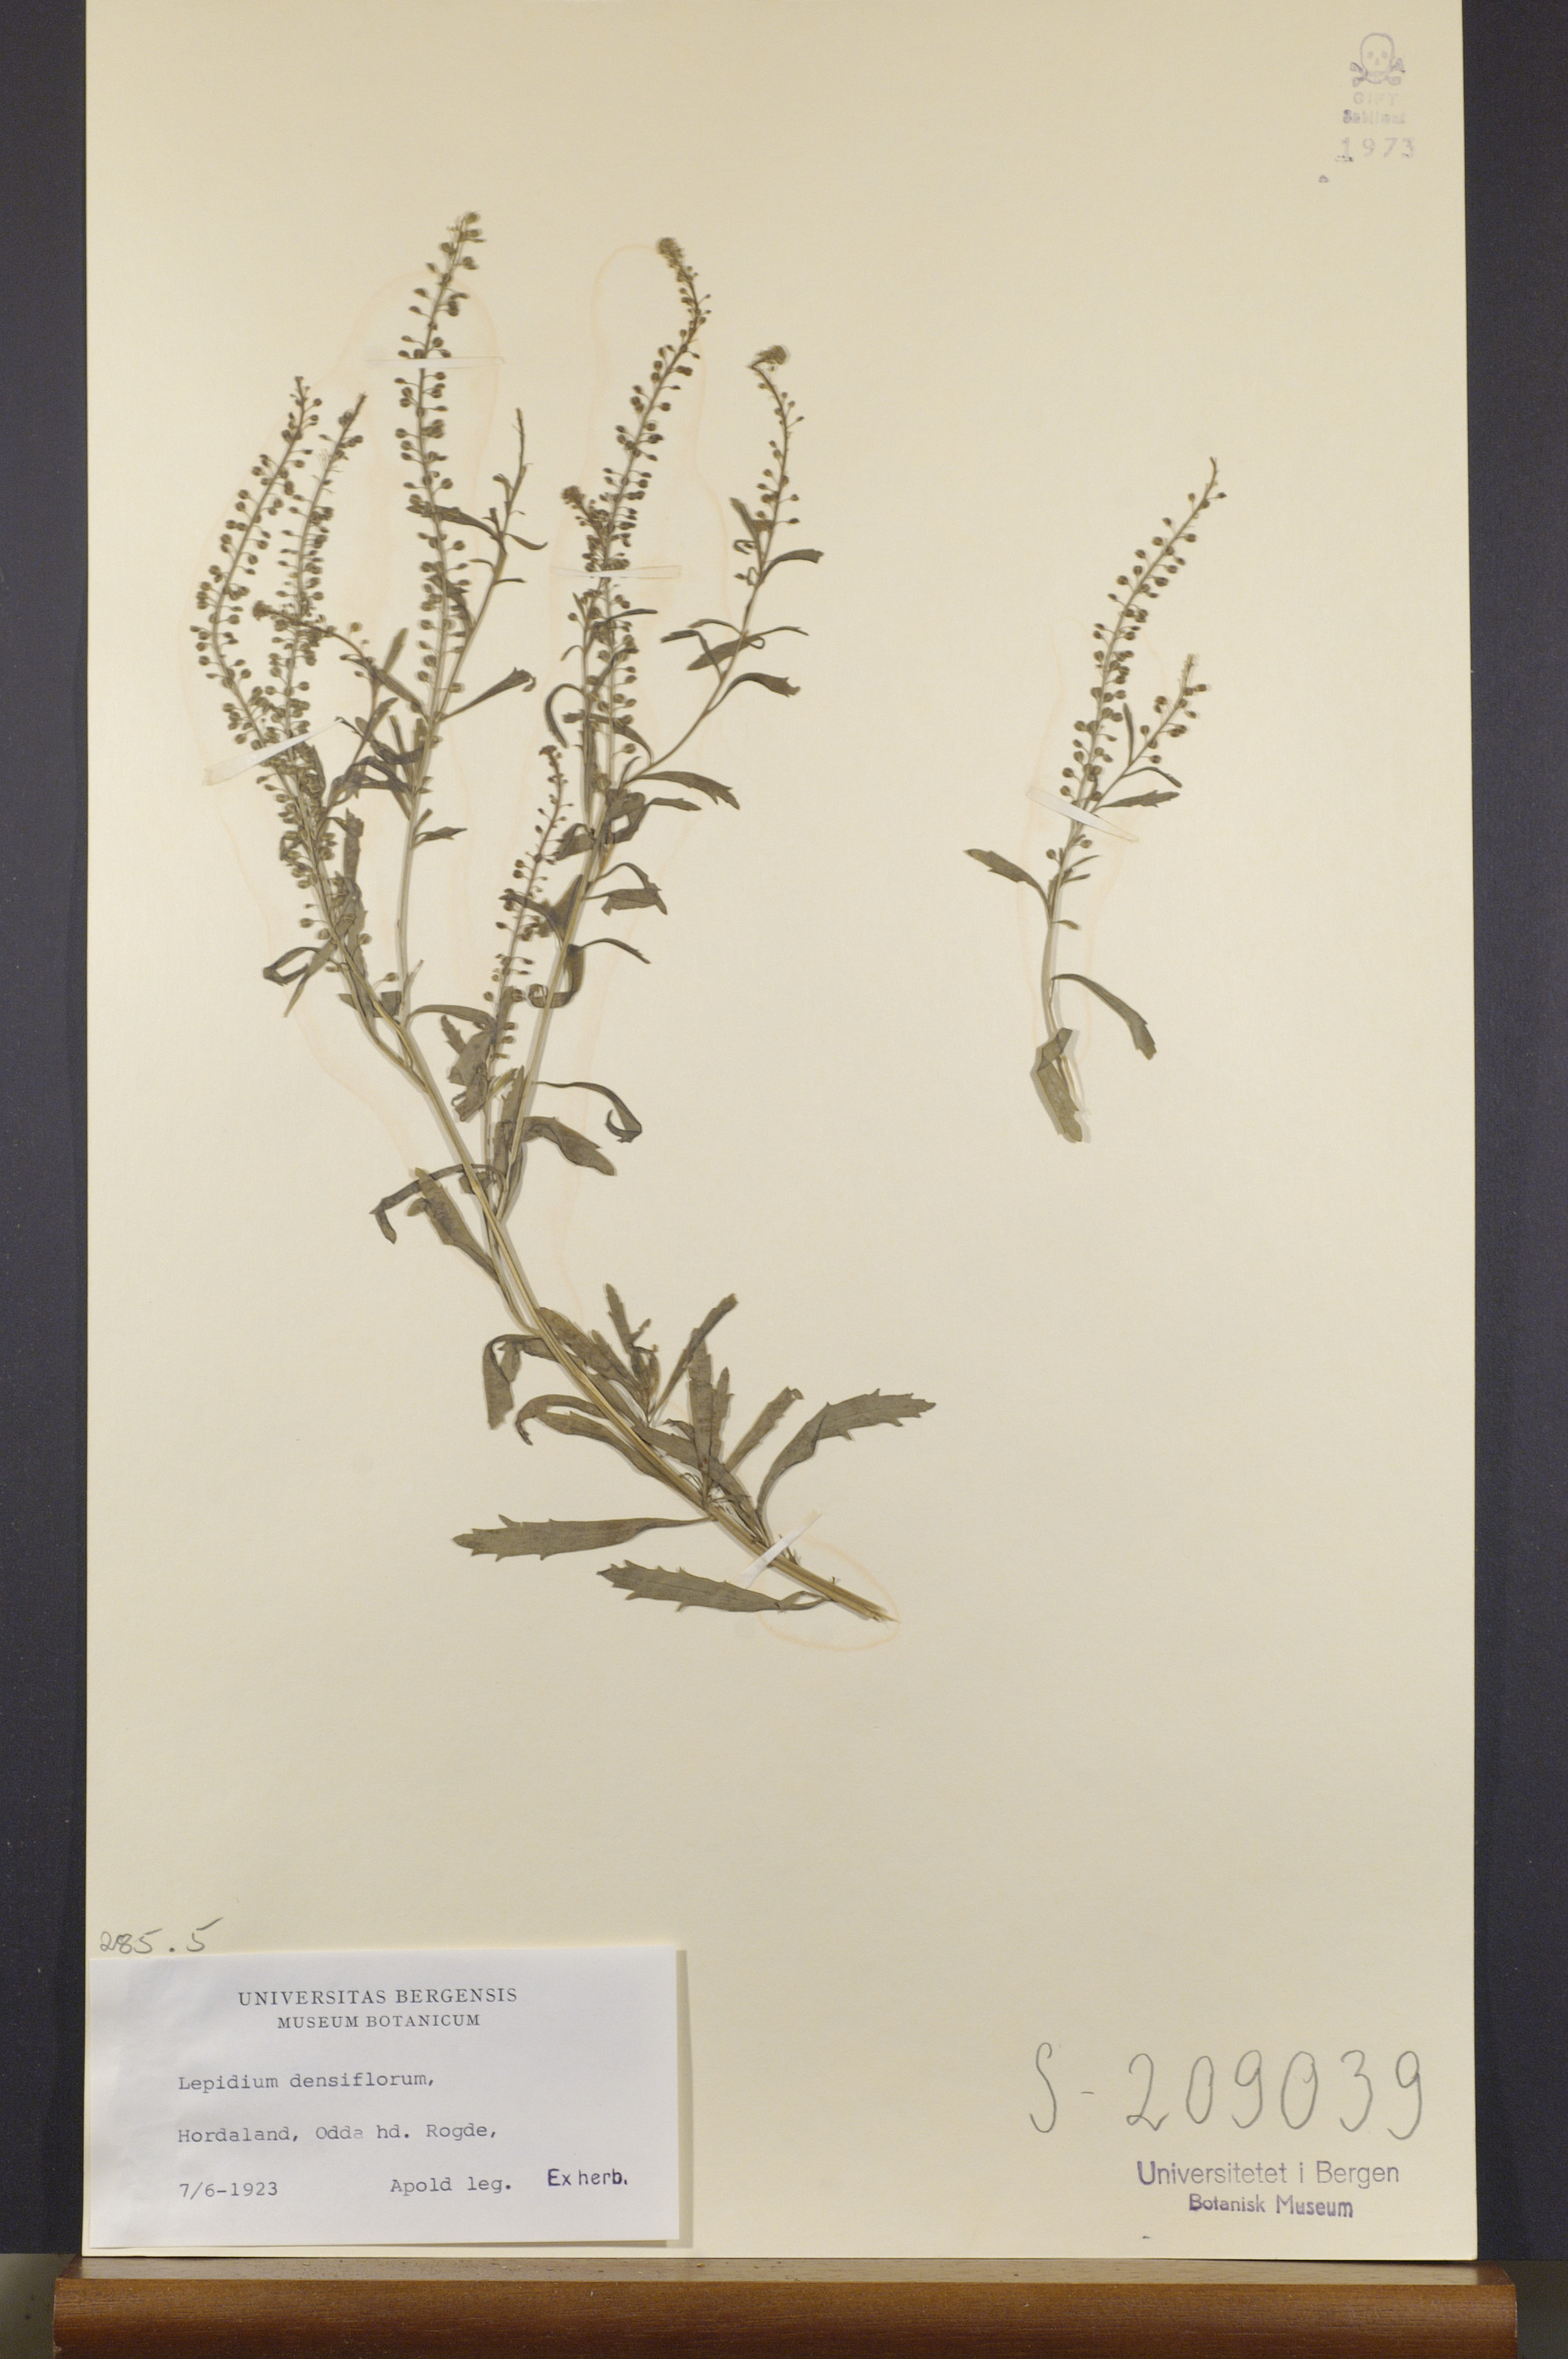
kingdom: Plantae
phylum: Tracheophyta
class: Magnoliopsida
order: Brassicales
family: Brassicaceae
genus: Lepidium
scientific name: Lepidium densiflorum
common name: Miner's pepperwort
